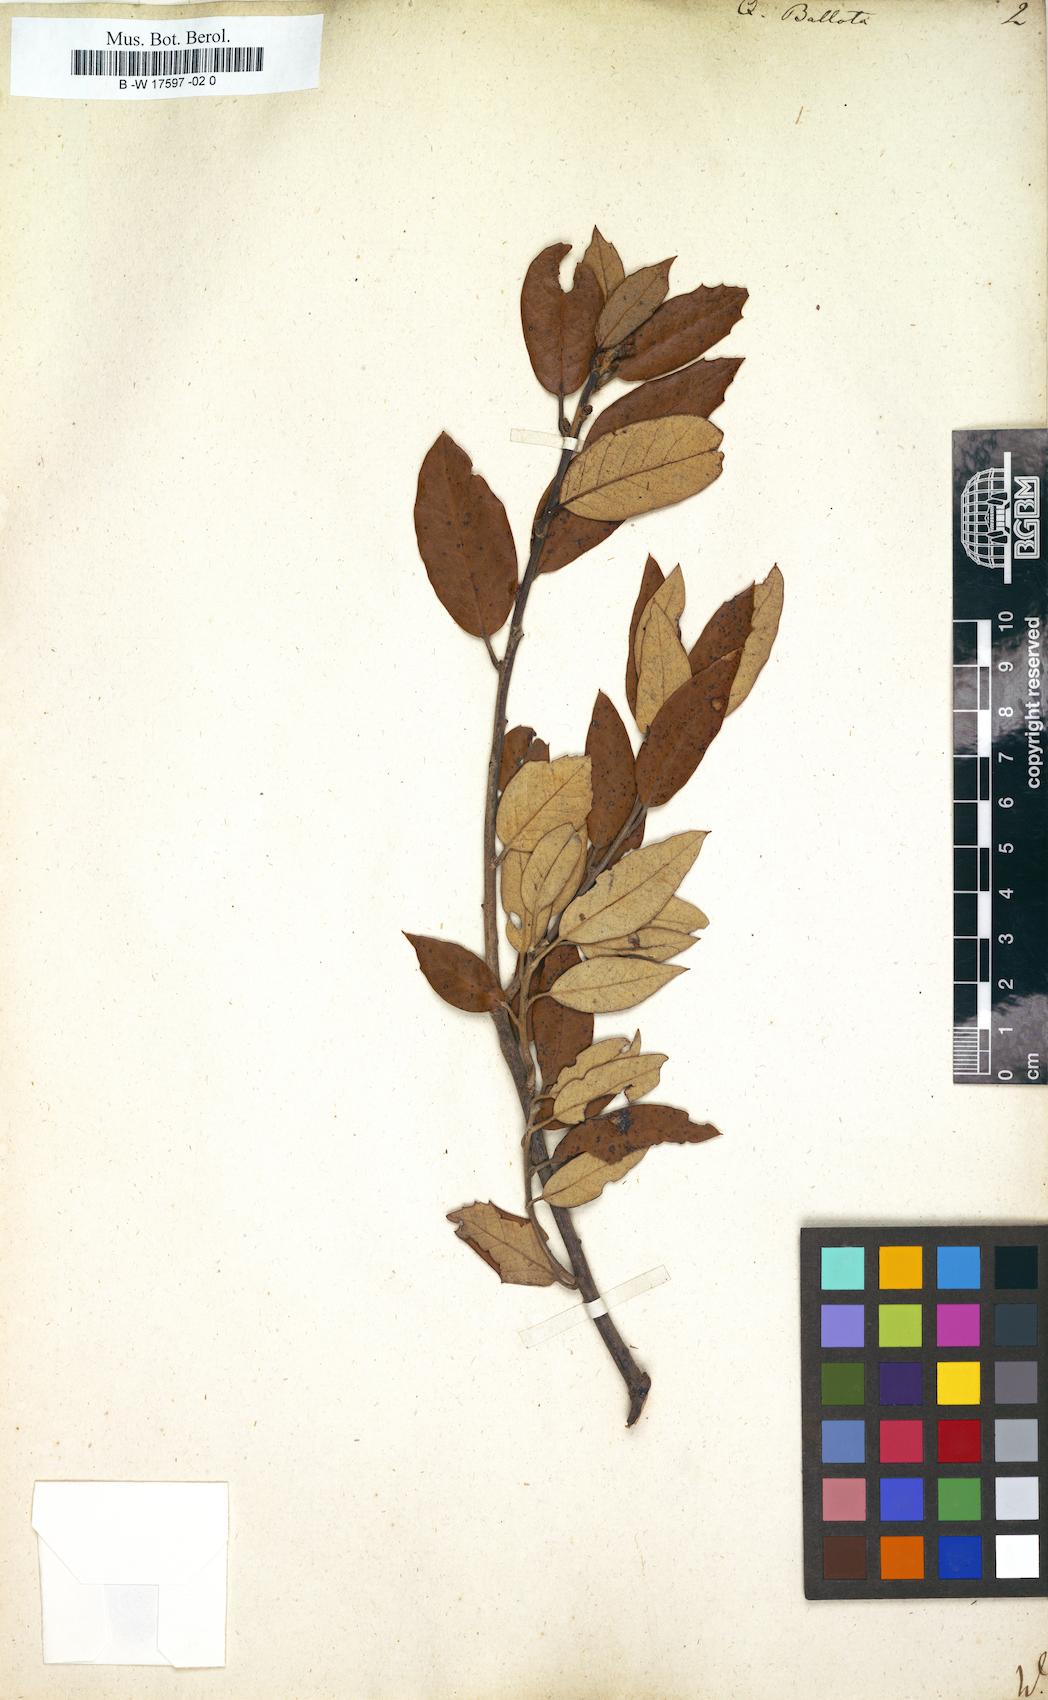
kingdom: Plantae
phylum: Tracheophyta
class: Magnoliopsida
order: Fagales
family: Fagaceae
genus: Quercus
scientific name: Quercus rotundifolia
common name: Holm oak
